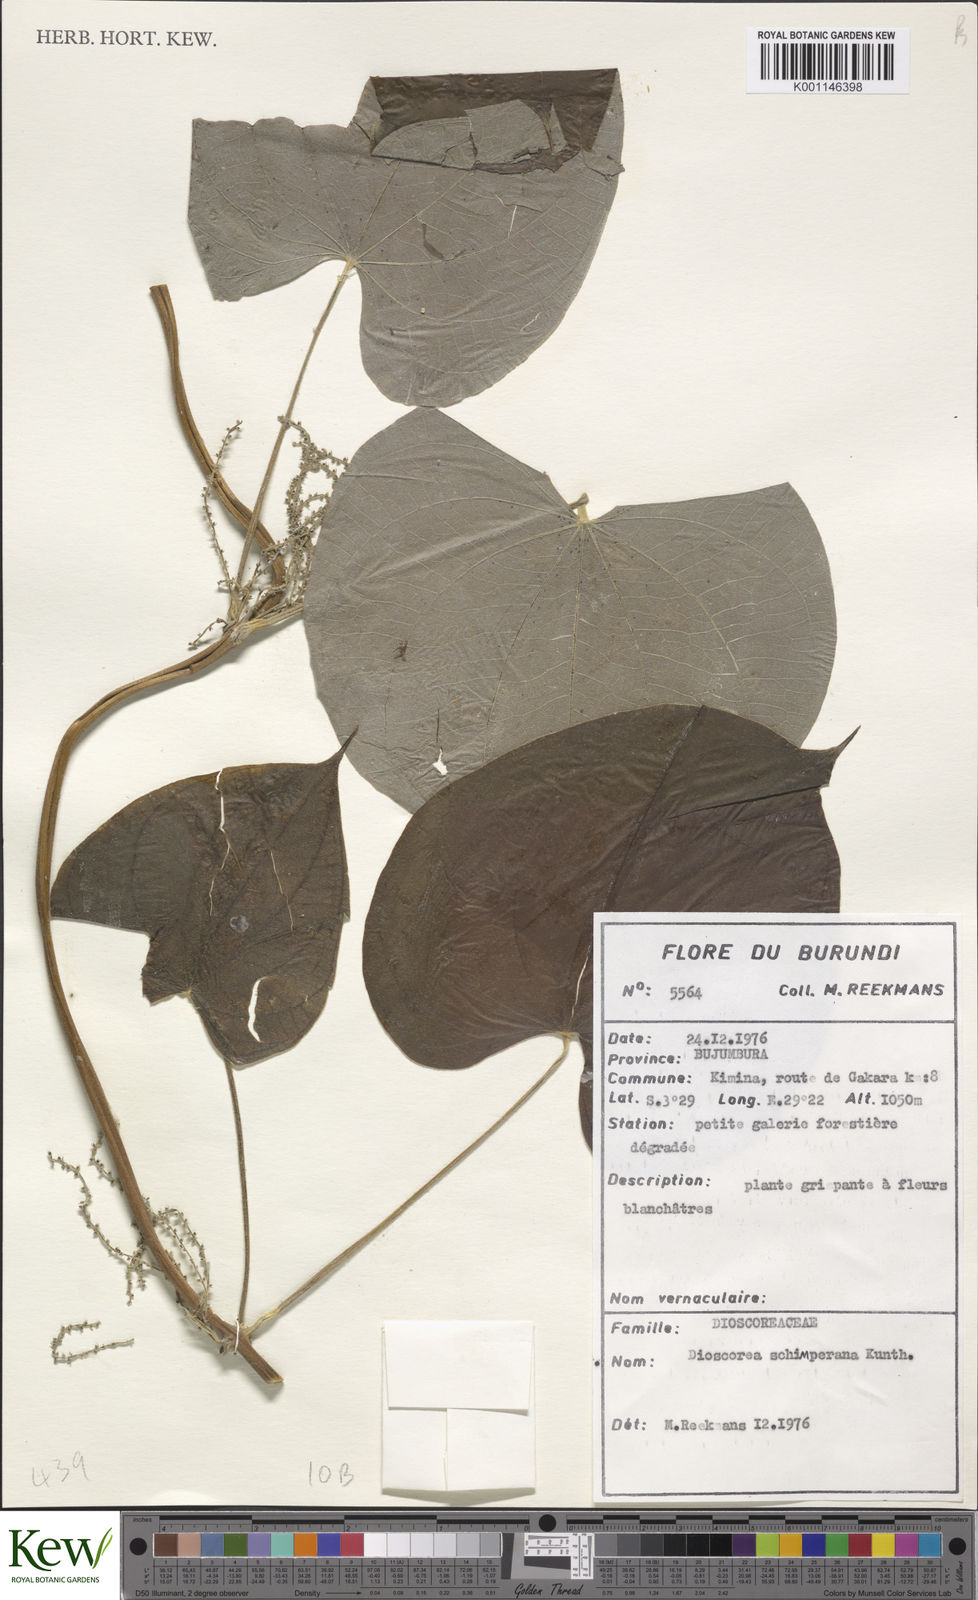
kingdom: Plantae
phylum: Tracheophyta
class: Liliopsida
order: Dioscoreales
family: Dioscoreaceae
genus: Dioscorea
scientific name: Dioscorea schimperiana
